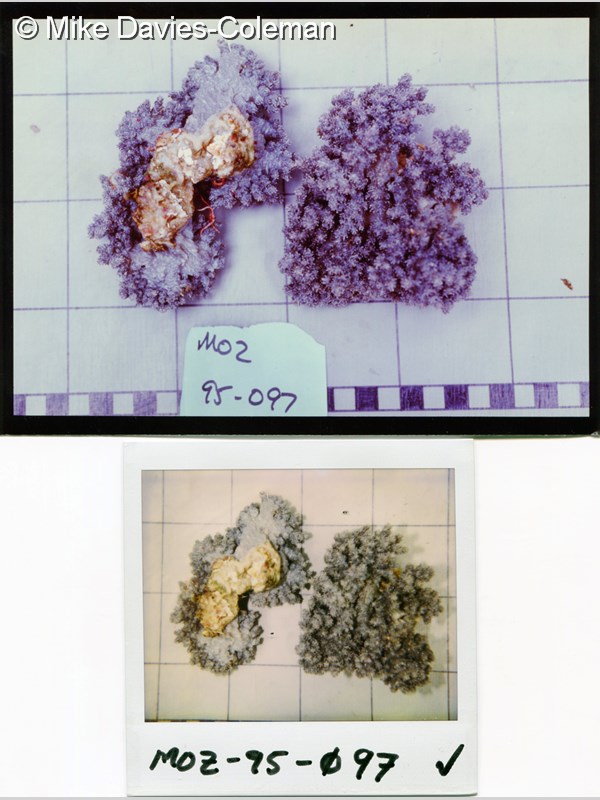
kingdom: Animalia
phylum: Cnidaria
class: Anthozoa
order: Malacalcyonacea
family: Nephtheidae
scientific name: Nephtheidae
